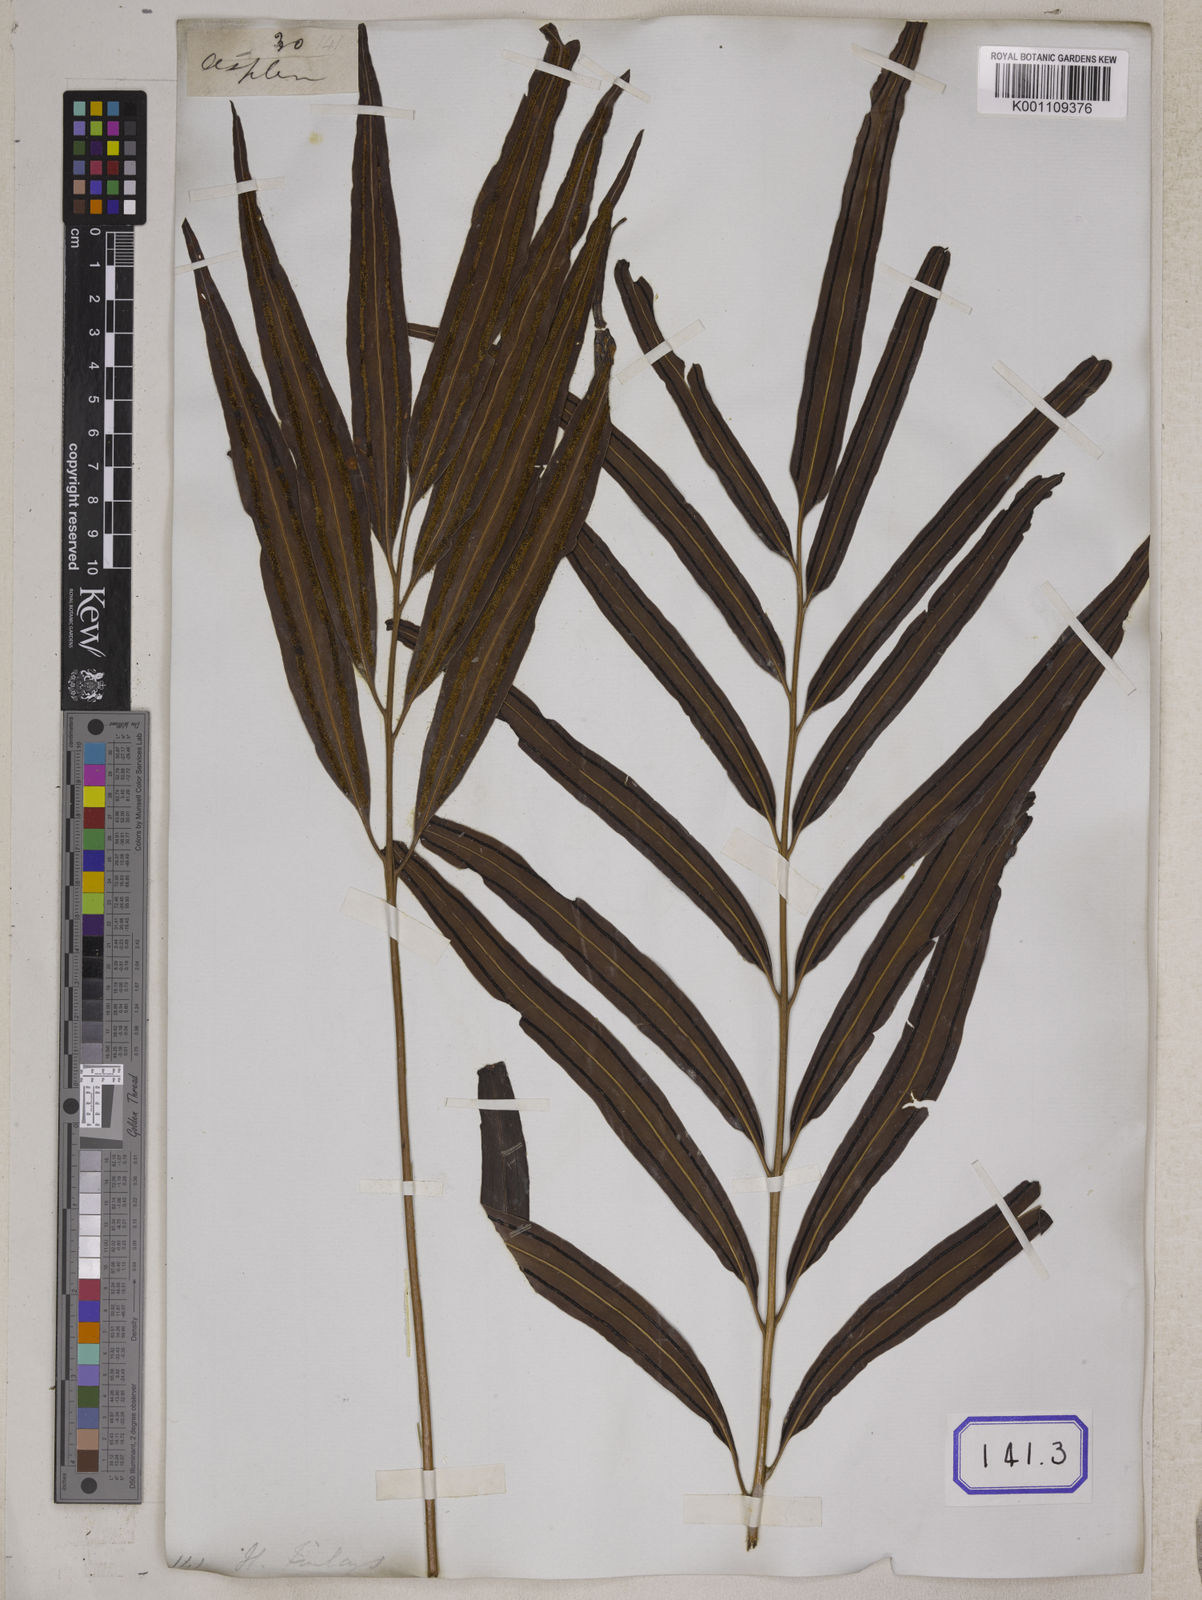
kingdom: Plantae
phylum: Tracheophyta
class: Polypodiopsida
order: Polypodiales
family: Pteridaceae
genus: Taenitis
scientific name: Taenitis blechnoides
